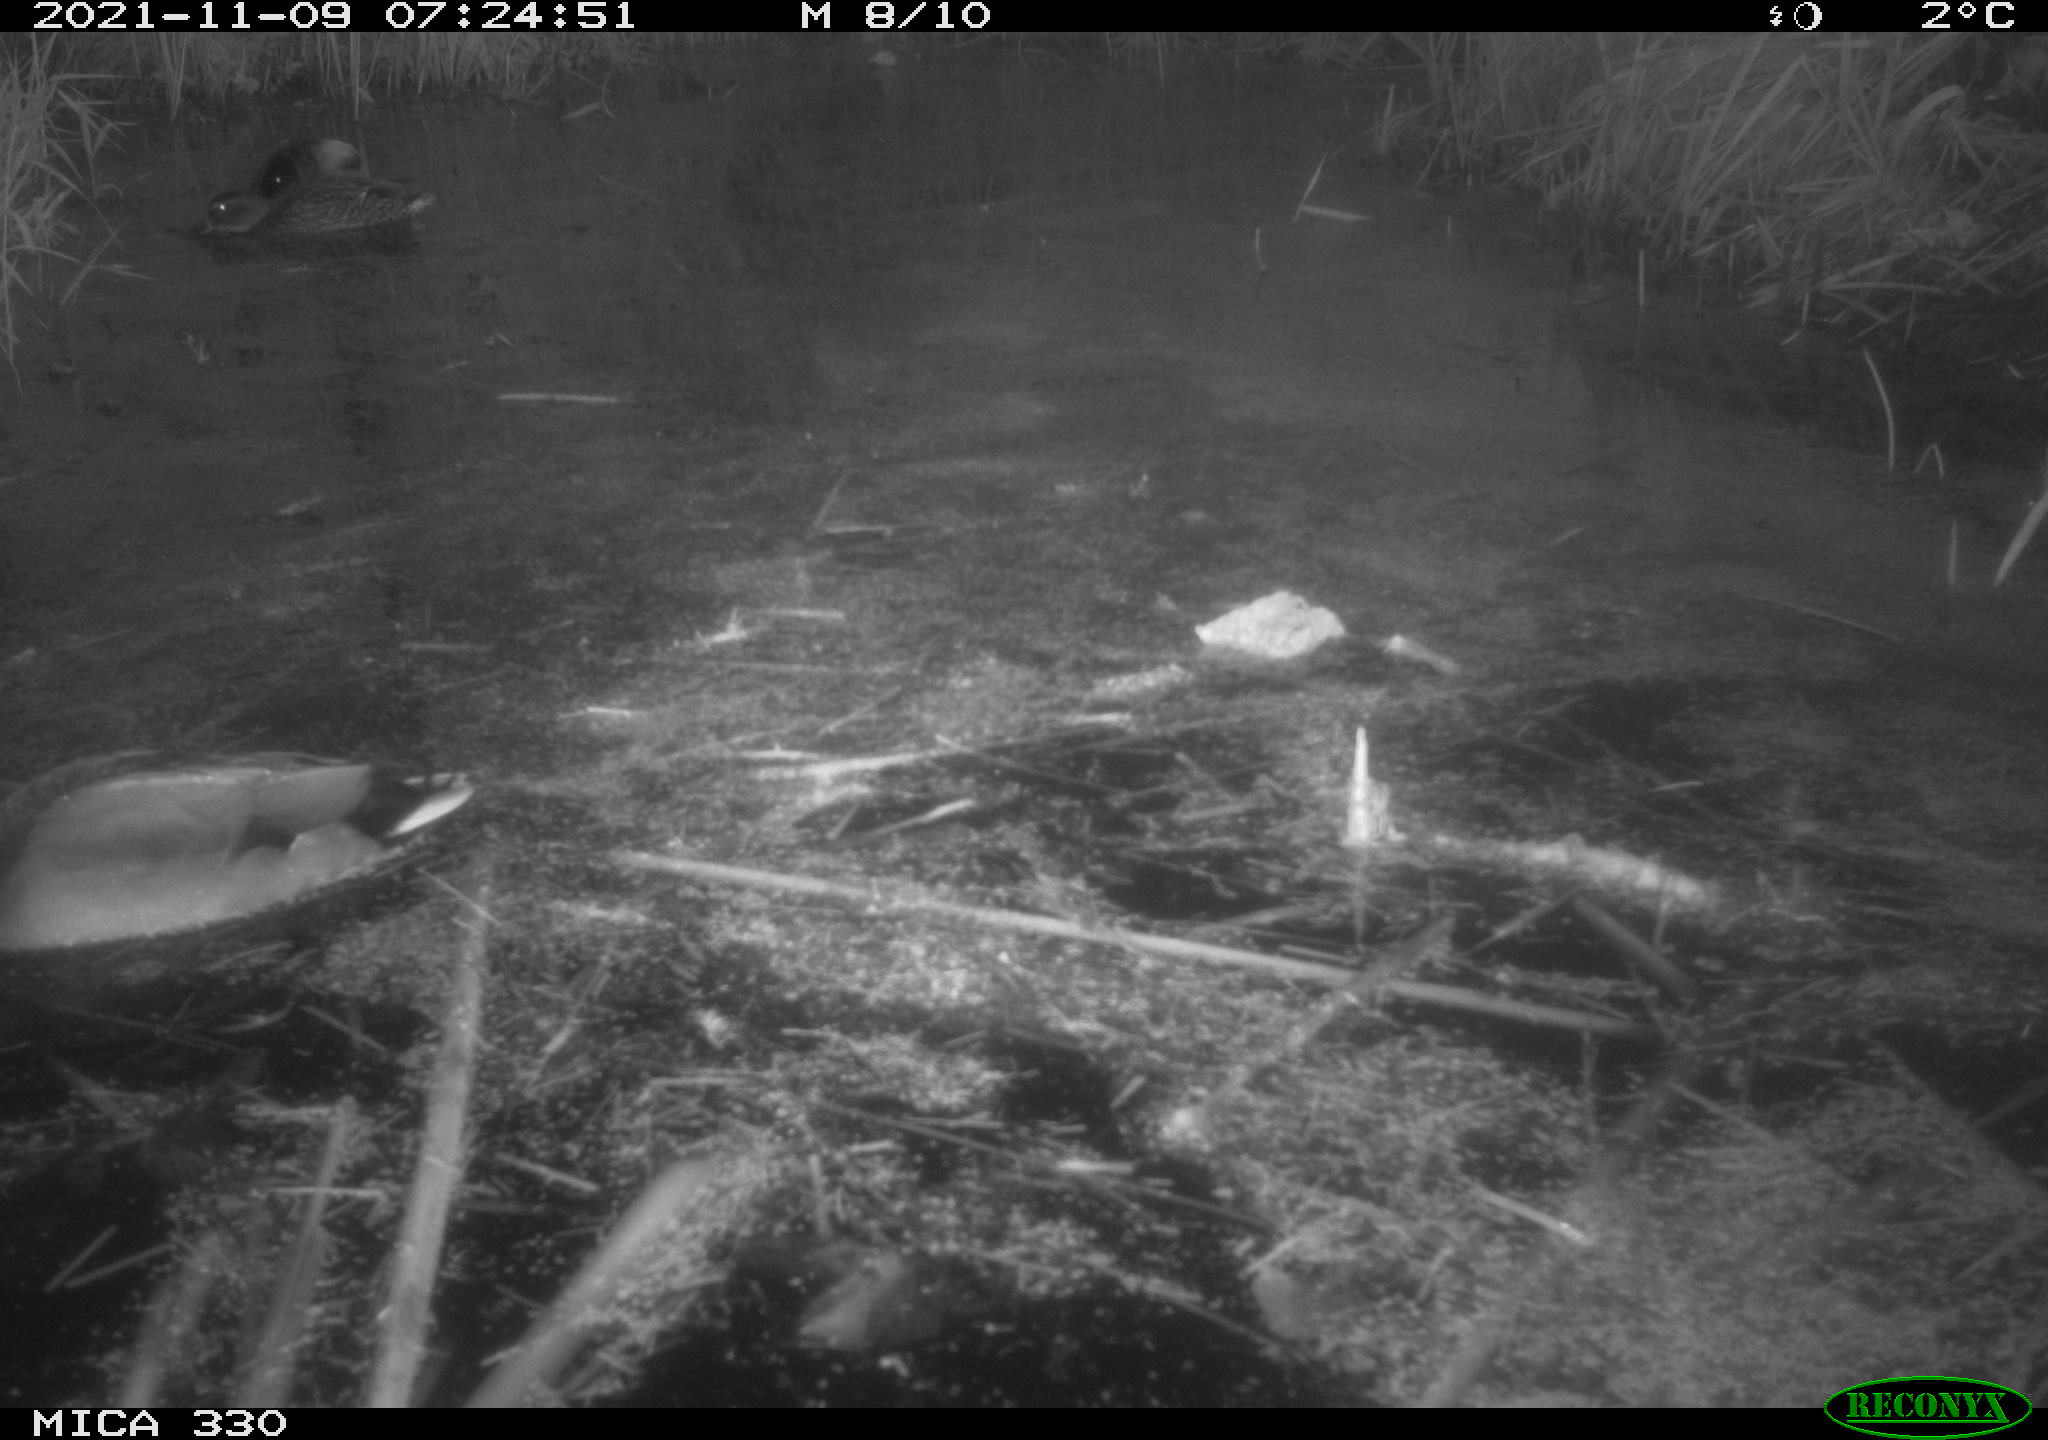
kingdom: Animalia
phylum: Chordata
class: Aves
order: Anseriformes
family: Anatidae
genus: Anas
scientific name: Anas platyrhynchos
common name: Mallard
